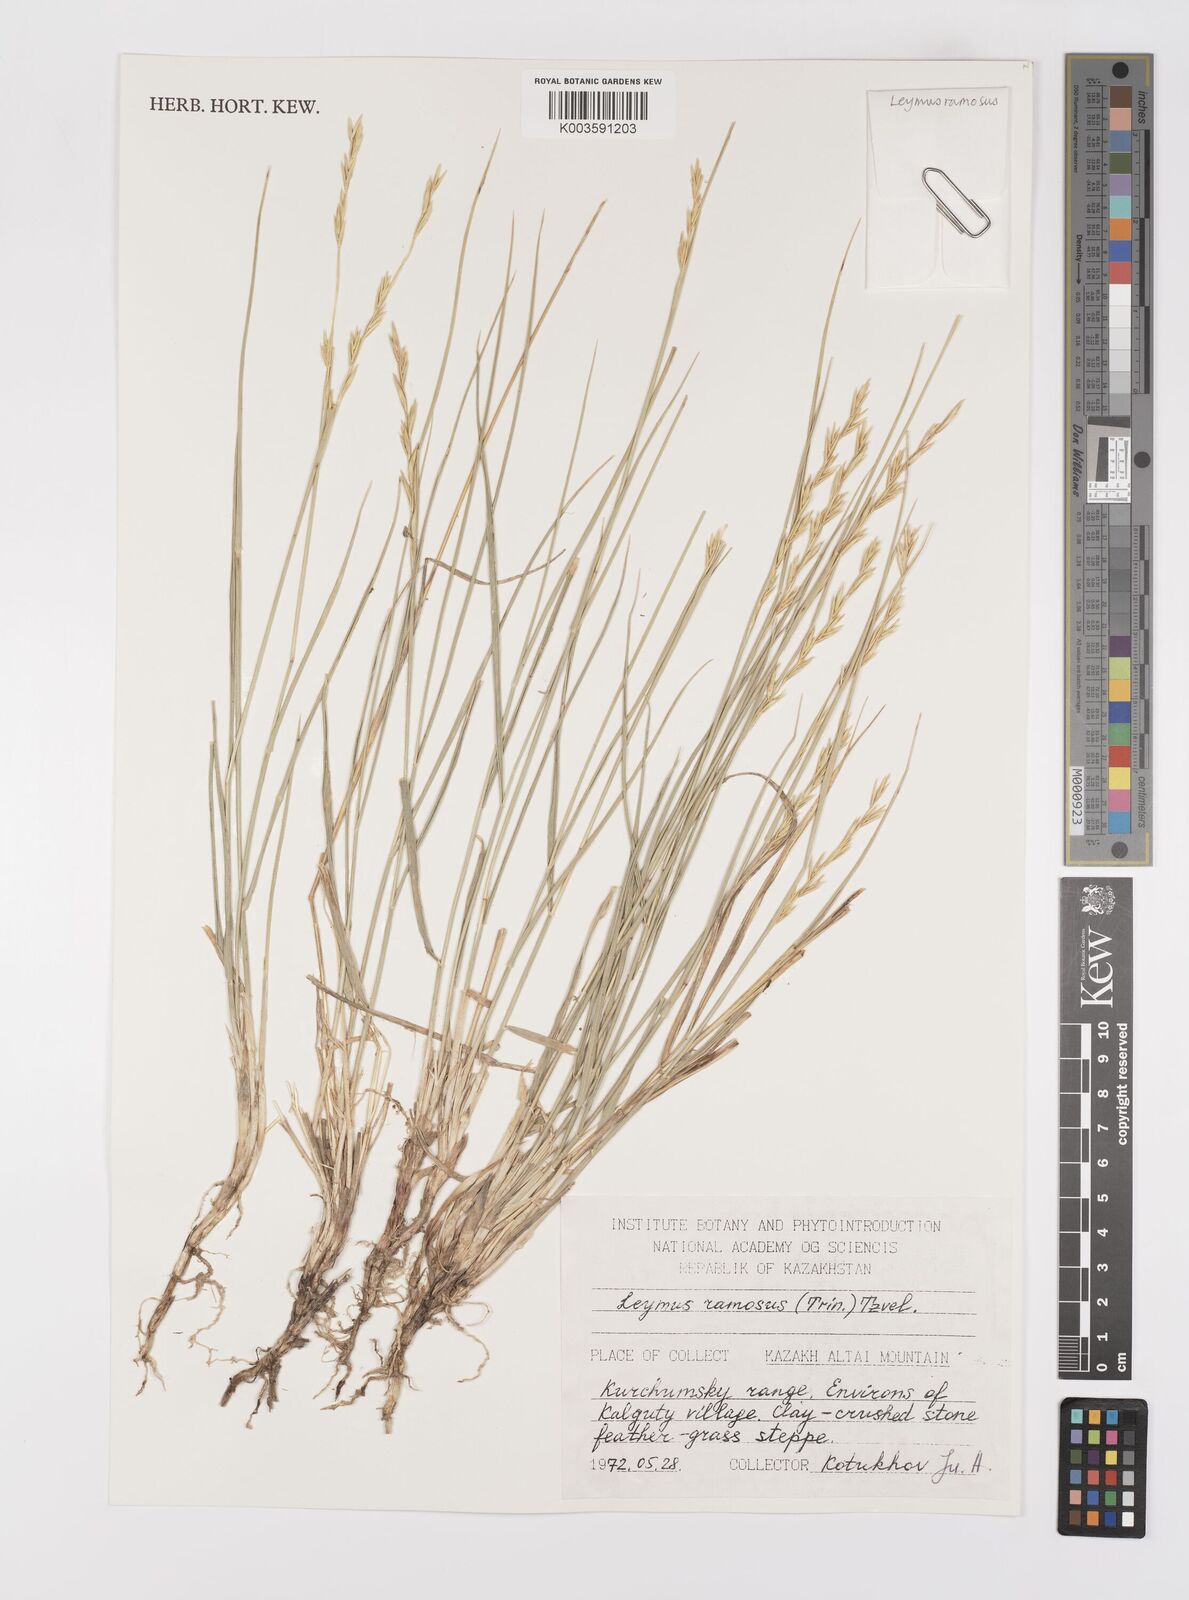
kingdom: Plantae
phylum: Tracheophyta
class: Liliopsida
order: Poales
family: Poaceae
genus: Leymus
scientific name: Leymus ramosus
